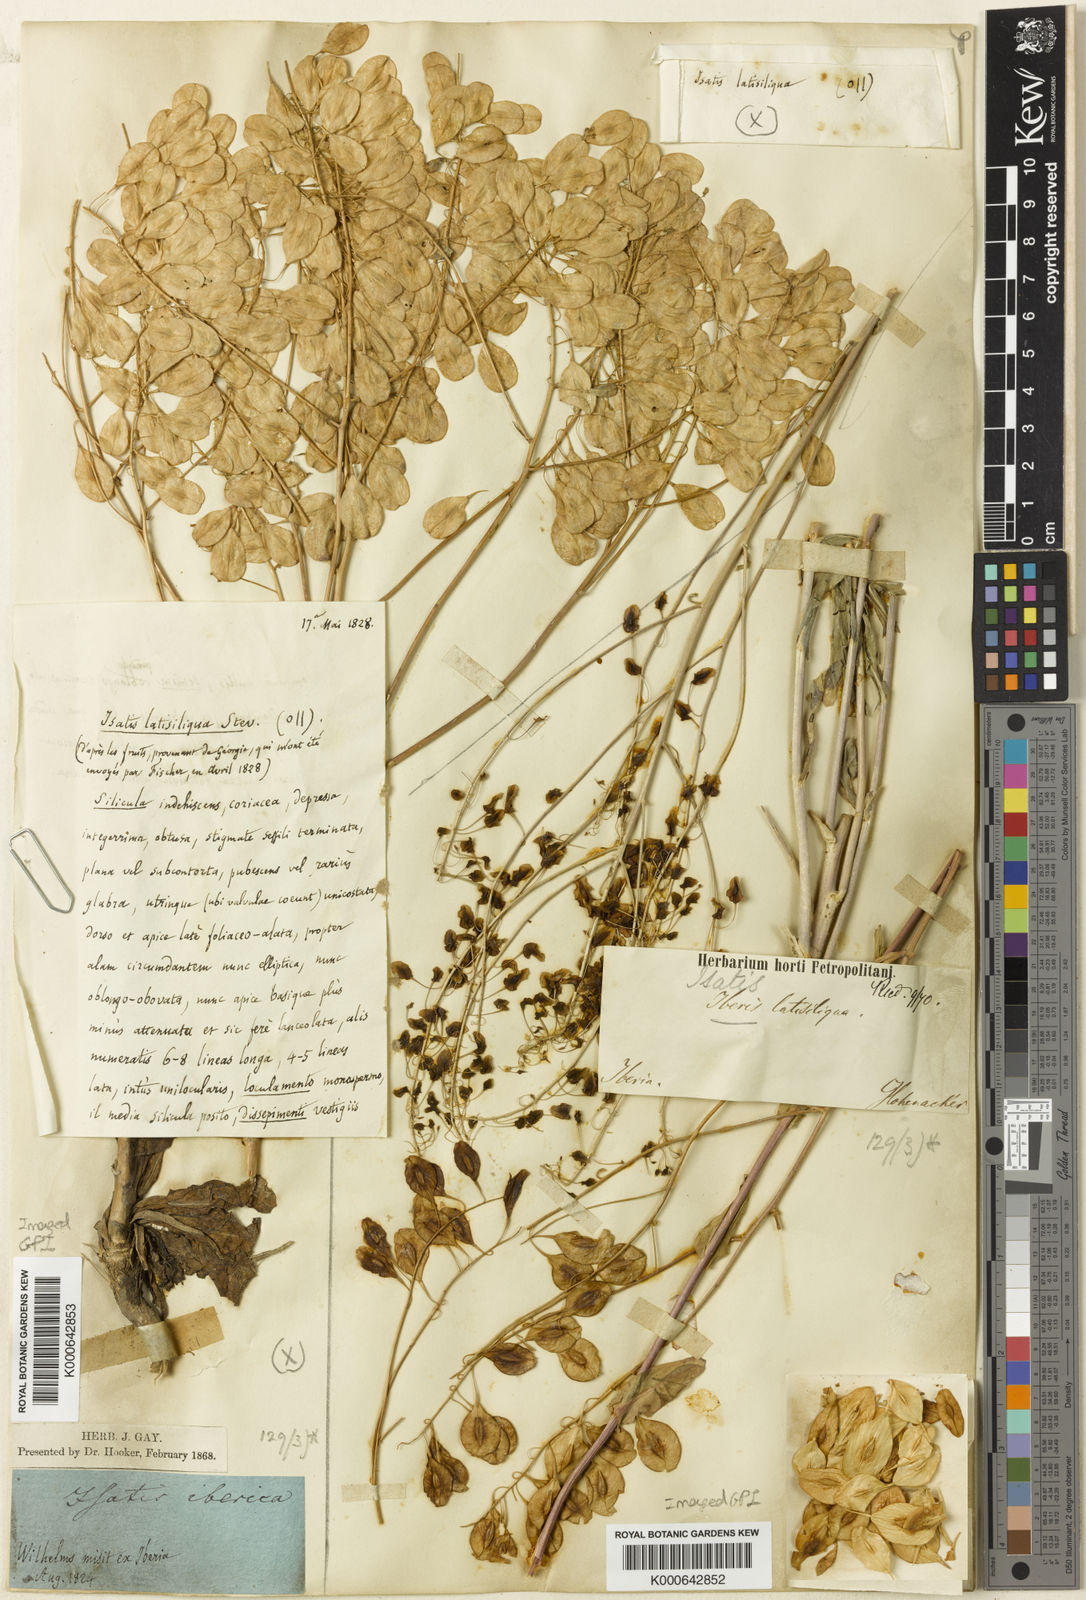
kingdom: Plantae
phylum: Tracheophyta
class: Magnoliopsida
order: Brassicales
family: Brassicaceae
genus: Isatis
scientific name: Isatis latisiliqua
